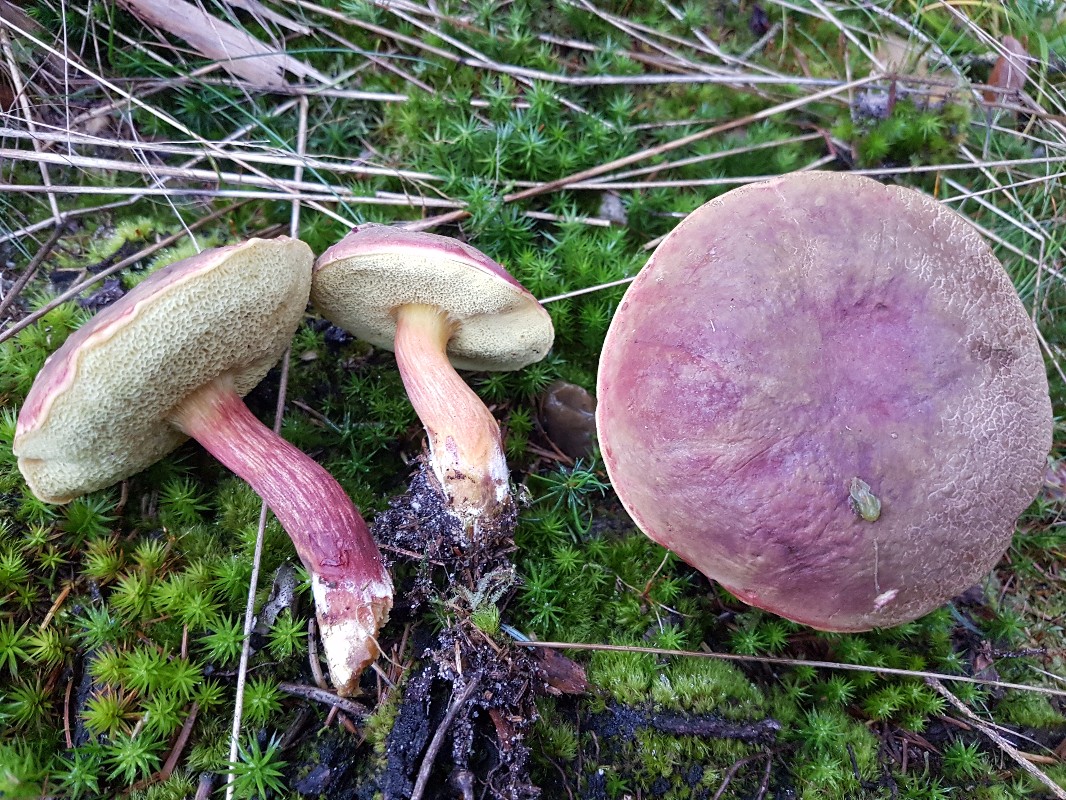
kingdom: Fungi
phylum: Basidiomycota
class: Agaricomycetes
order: Boletales
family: Boletaceae
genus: Xerocomellus
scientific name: Xerocomellus pruinatus
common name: dugget rørhat
